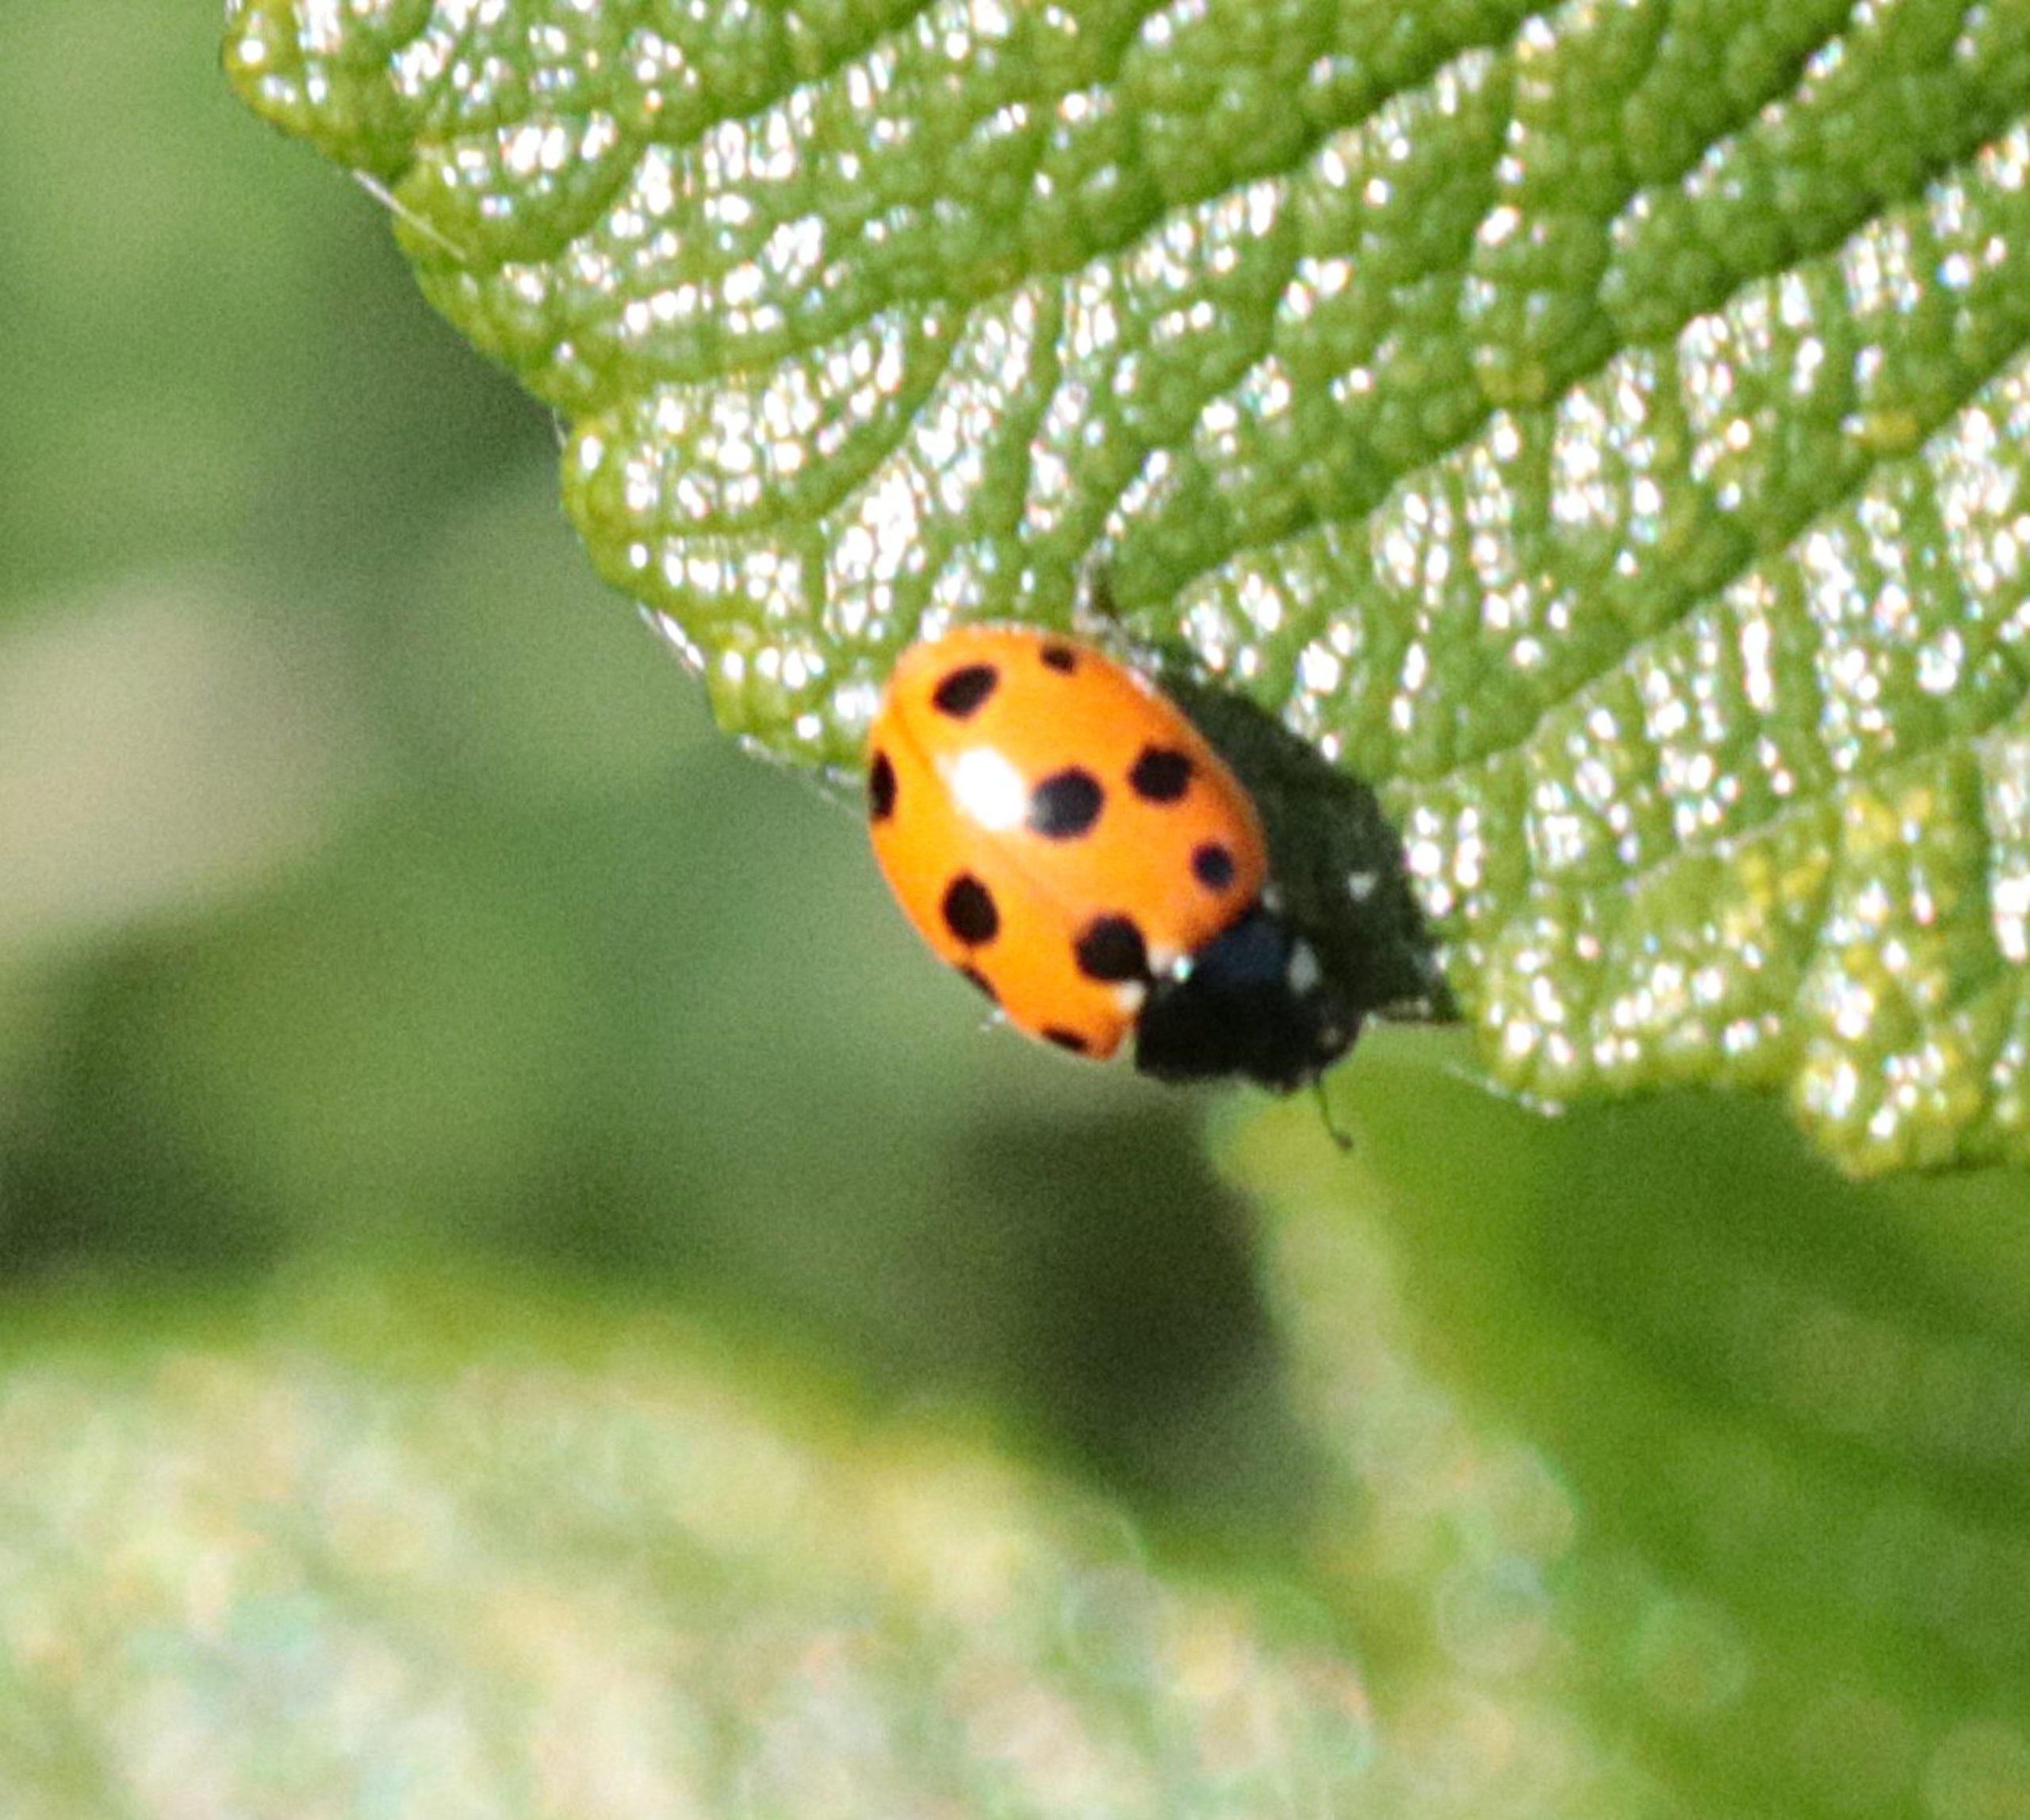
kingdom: Animalia
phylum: Arthropoda
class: Insecta
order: Coleoptera
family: Coccinellidae
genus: Coccinella
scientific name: Coccinella undecimpunctata
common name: Elleveplettet mariehøne
